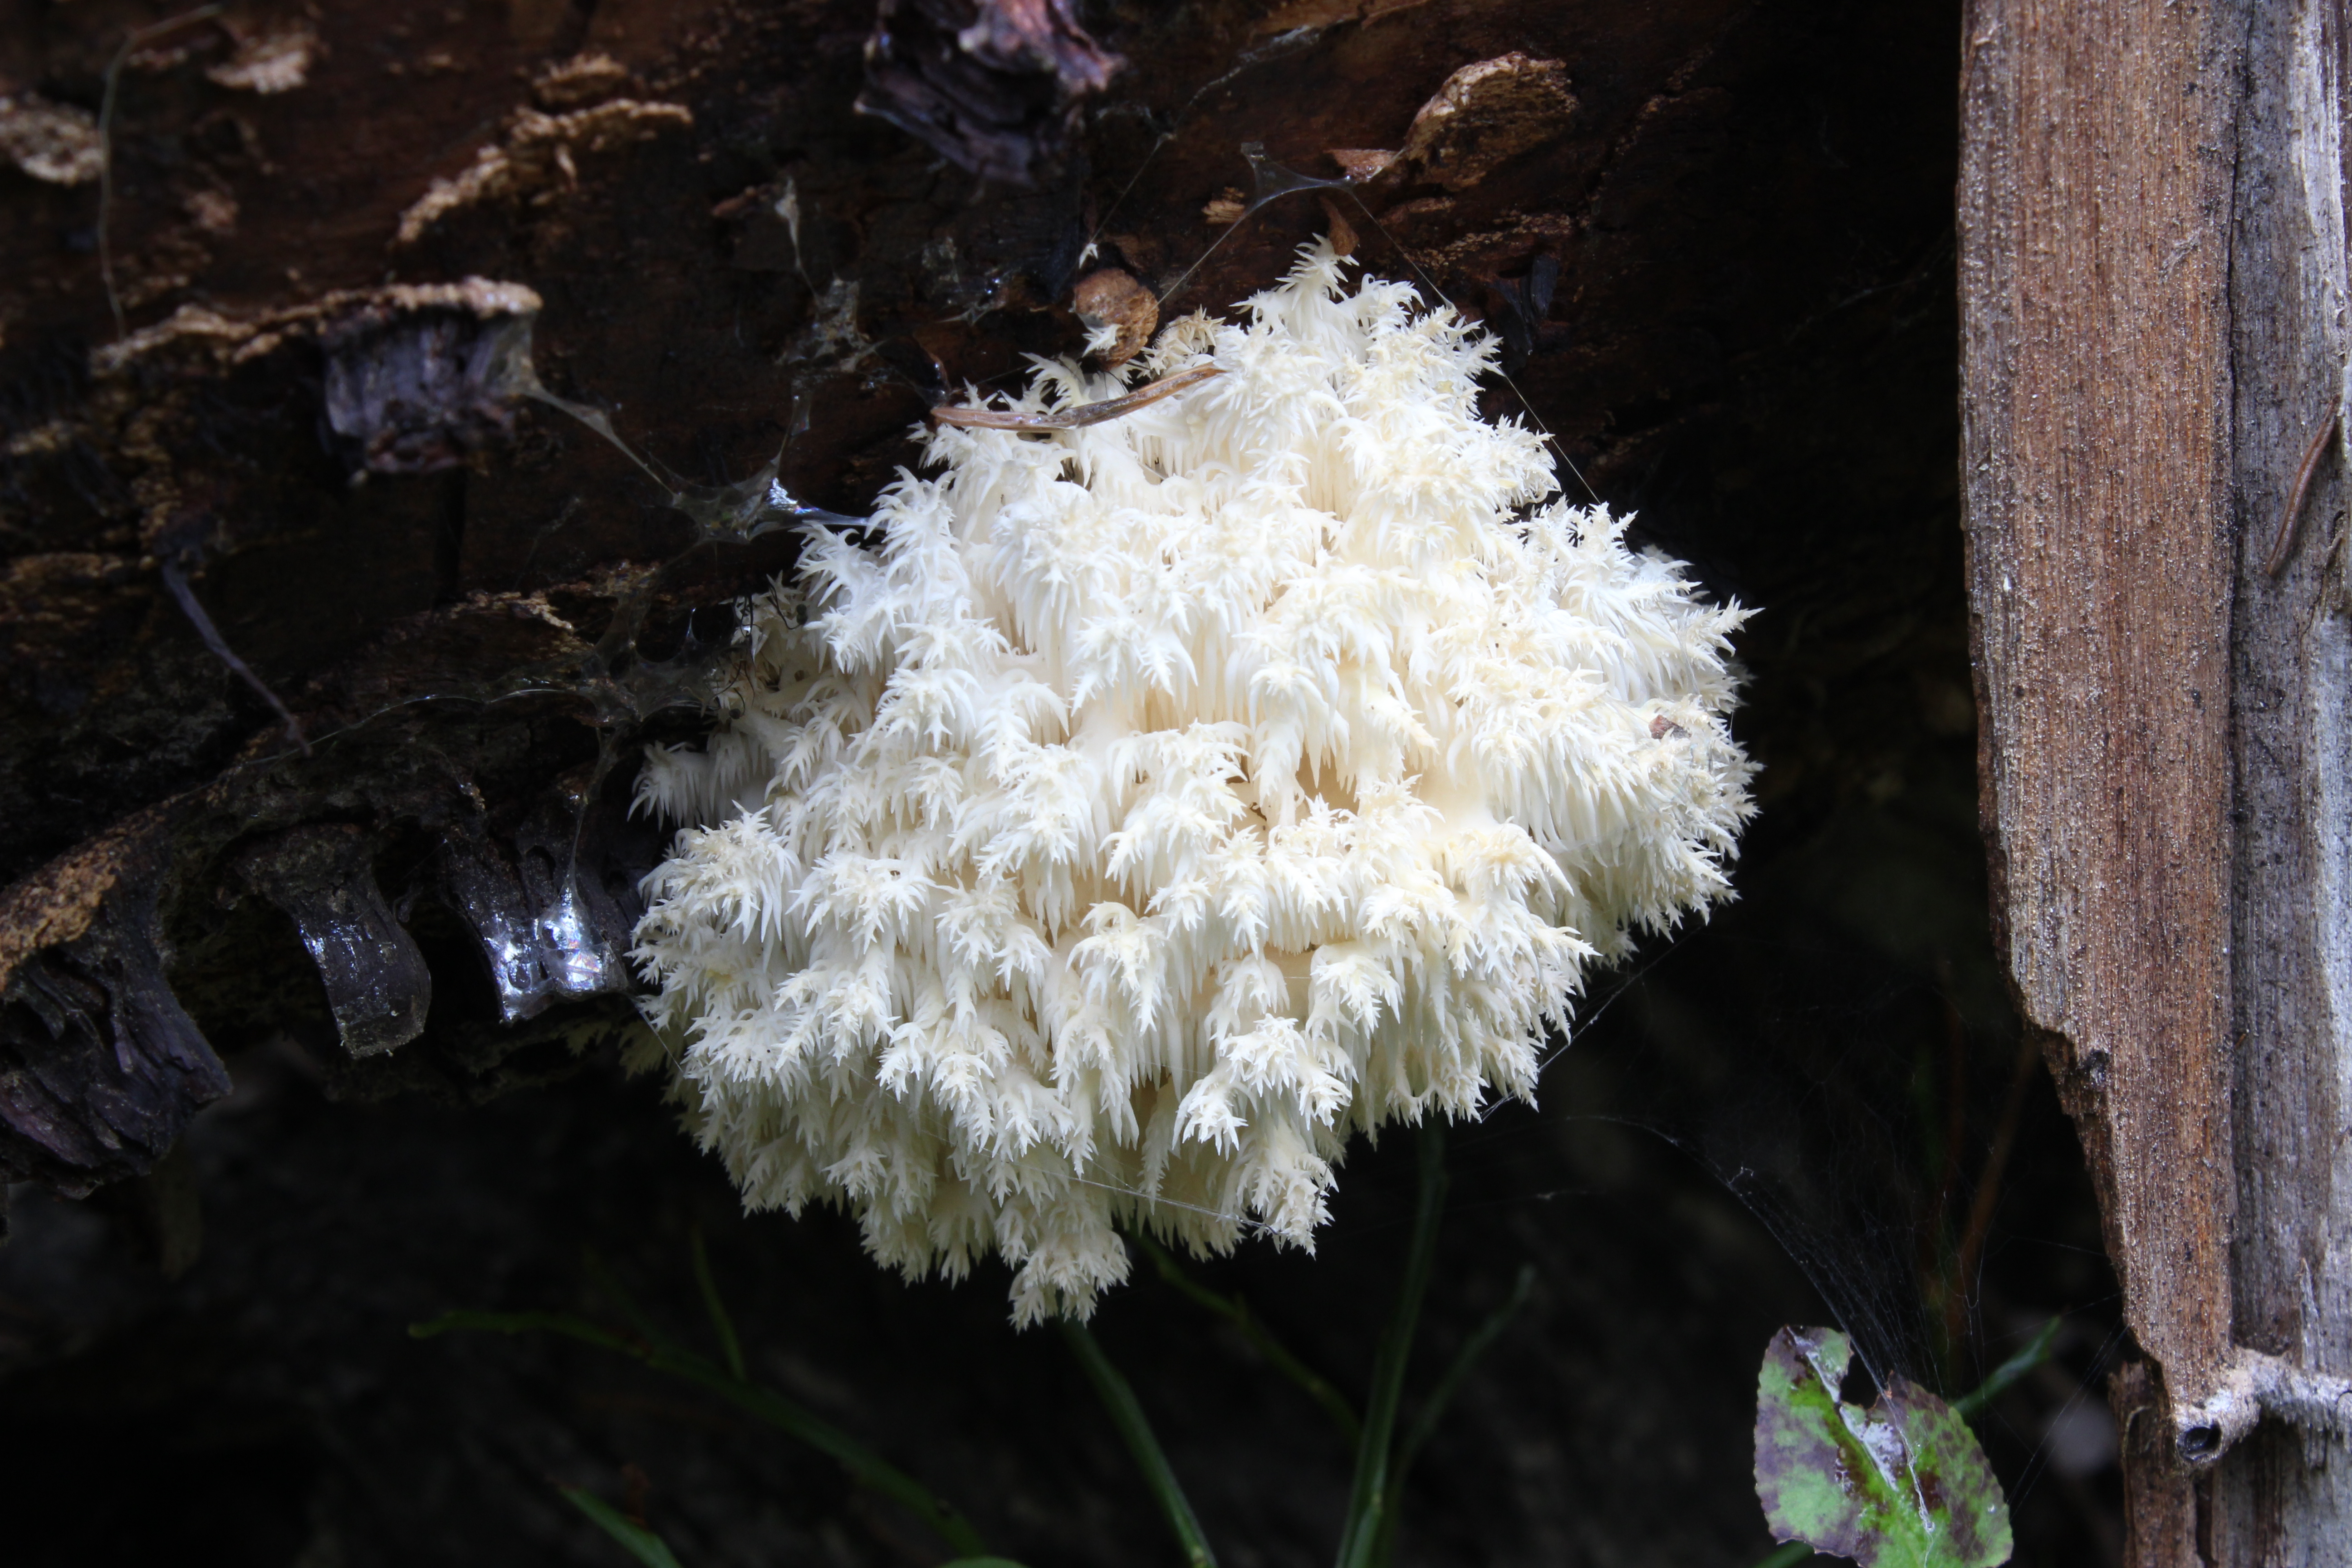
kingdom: Fungi
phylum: Basidiomycota
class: Agaricomycetes
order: Russulales
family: Hericiaceae
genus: Hericium
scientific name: Hericium coralloides
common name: Coral tooth
